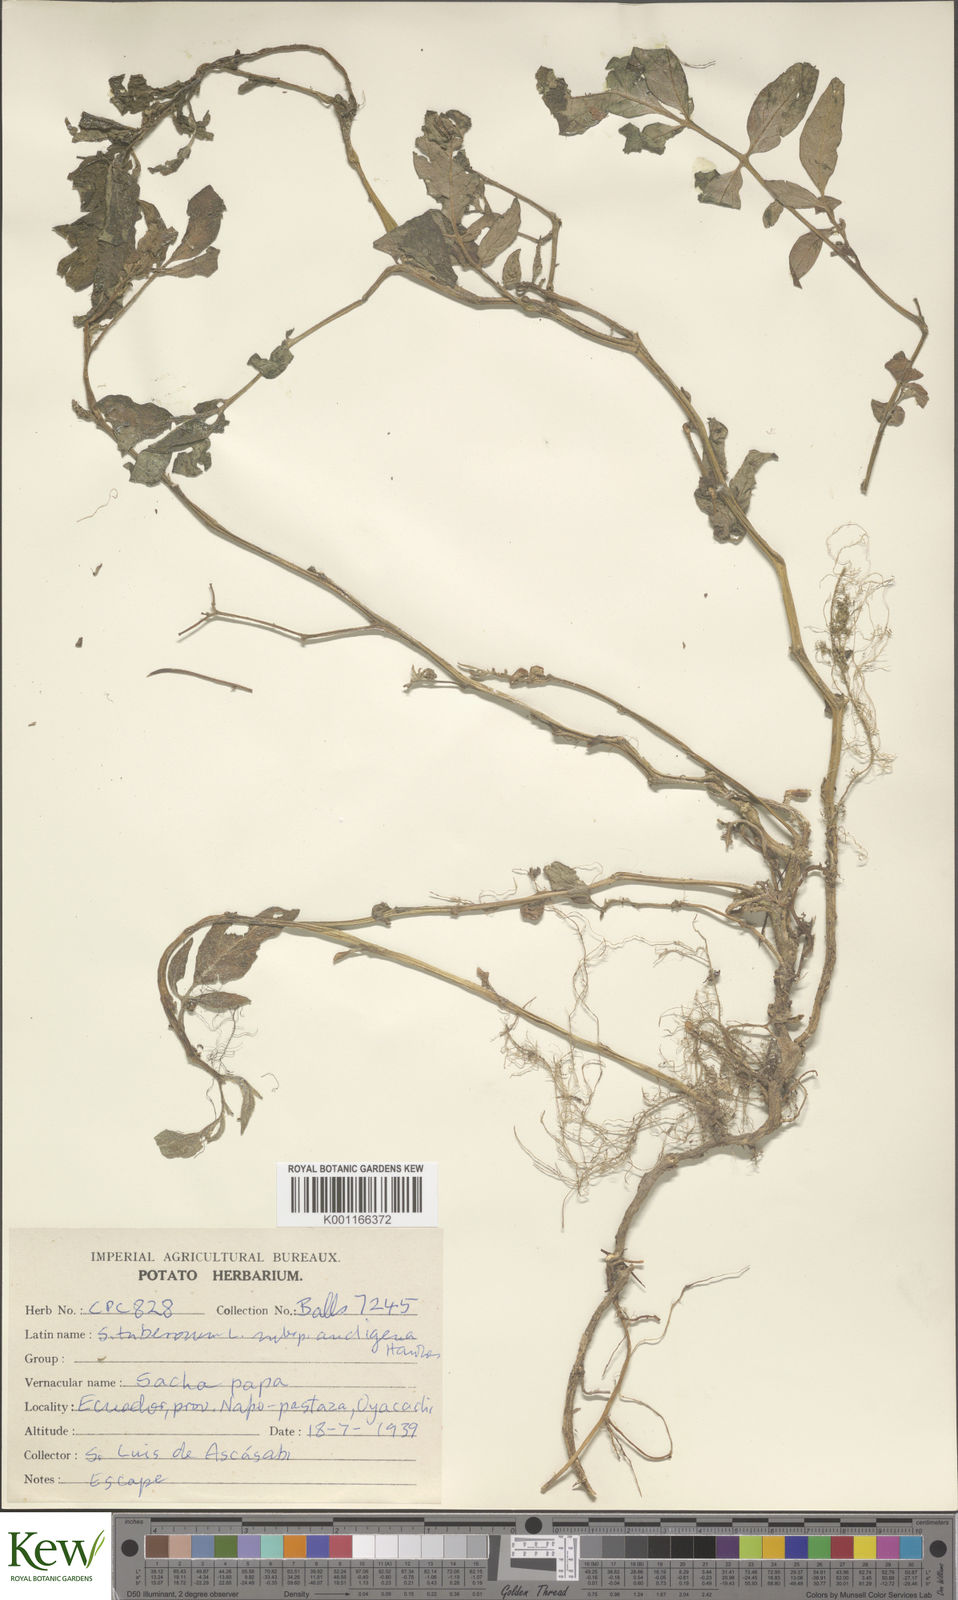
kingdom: Plantae
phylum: Tracheophyta
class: Magnoliopsida
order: Solanales
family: Solanaceae
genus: Solanum
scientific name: Solanum tuberosum
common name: Potato
